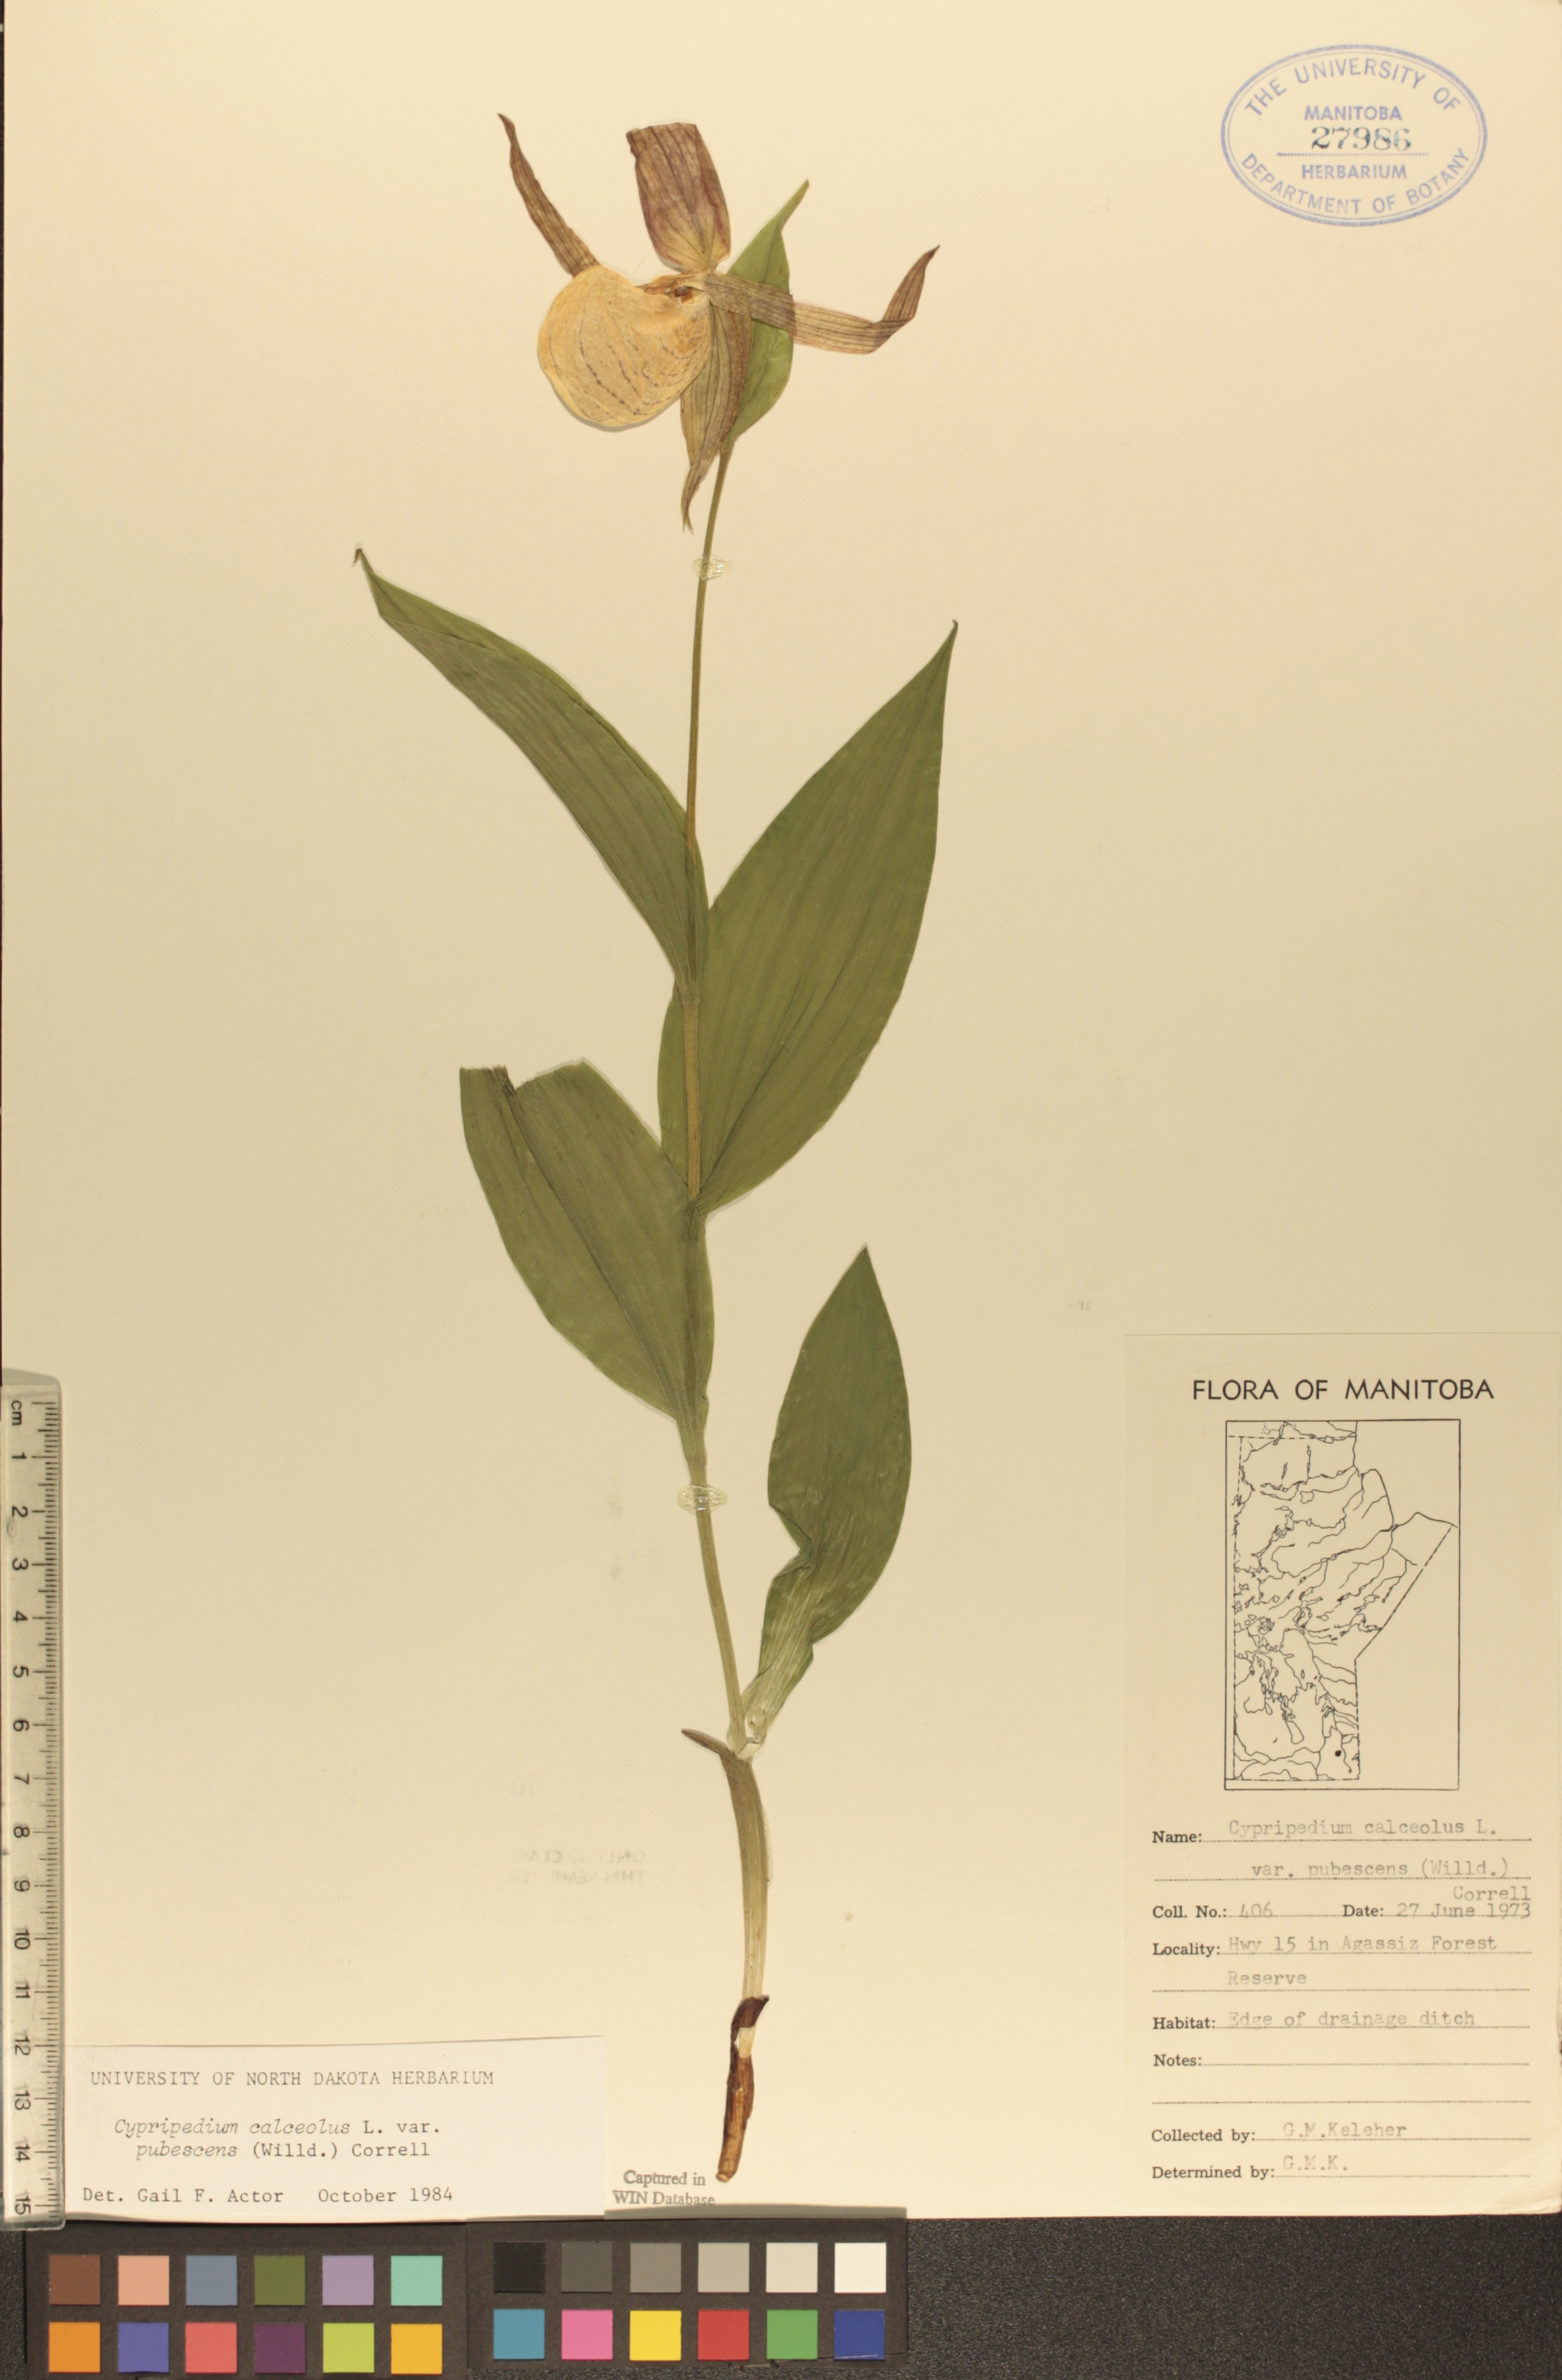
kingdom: Plantae
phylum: Tracheophyta
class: Liliopsida
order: Asparagales
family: Orchidaceae
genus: Cypripedium
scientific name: Cypripedium parviflorum
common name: American yellow lady's-slipper
